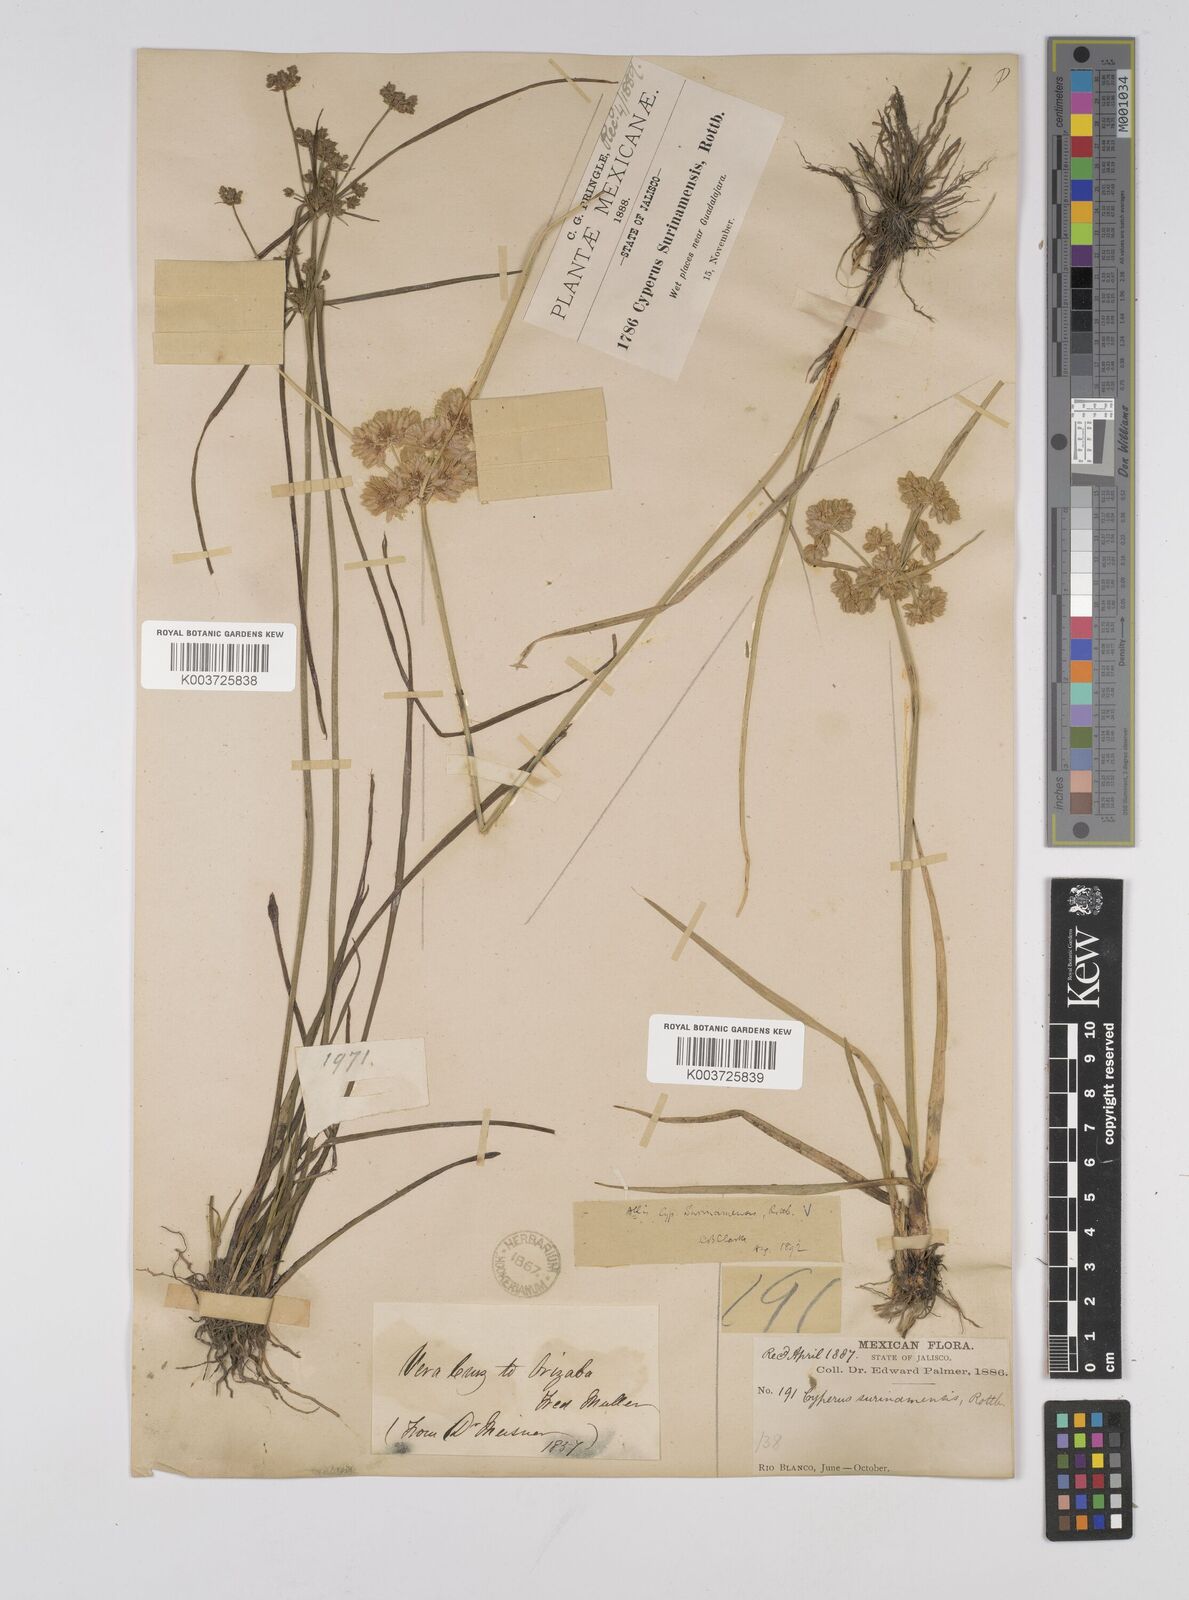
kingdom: Plantae
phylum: Tracheophyta
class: Liliopsida
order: Poales
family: Cyperaceae
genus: Cyperus
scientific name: Cyperus surinamensis
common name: Tropical flat sedge
